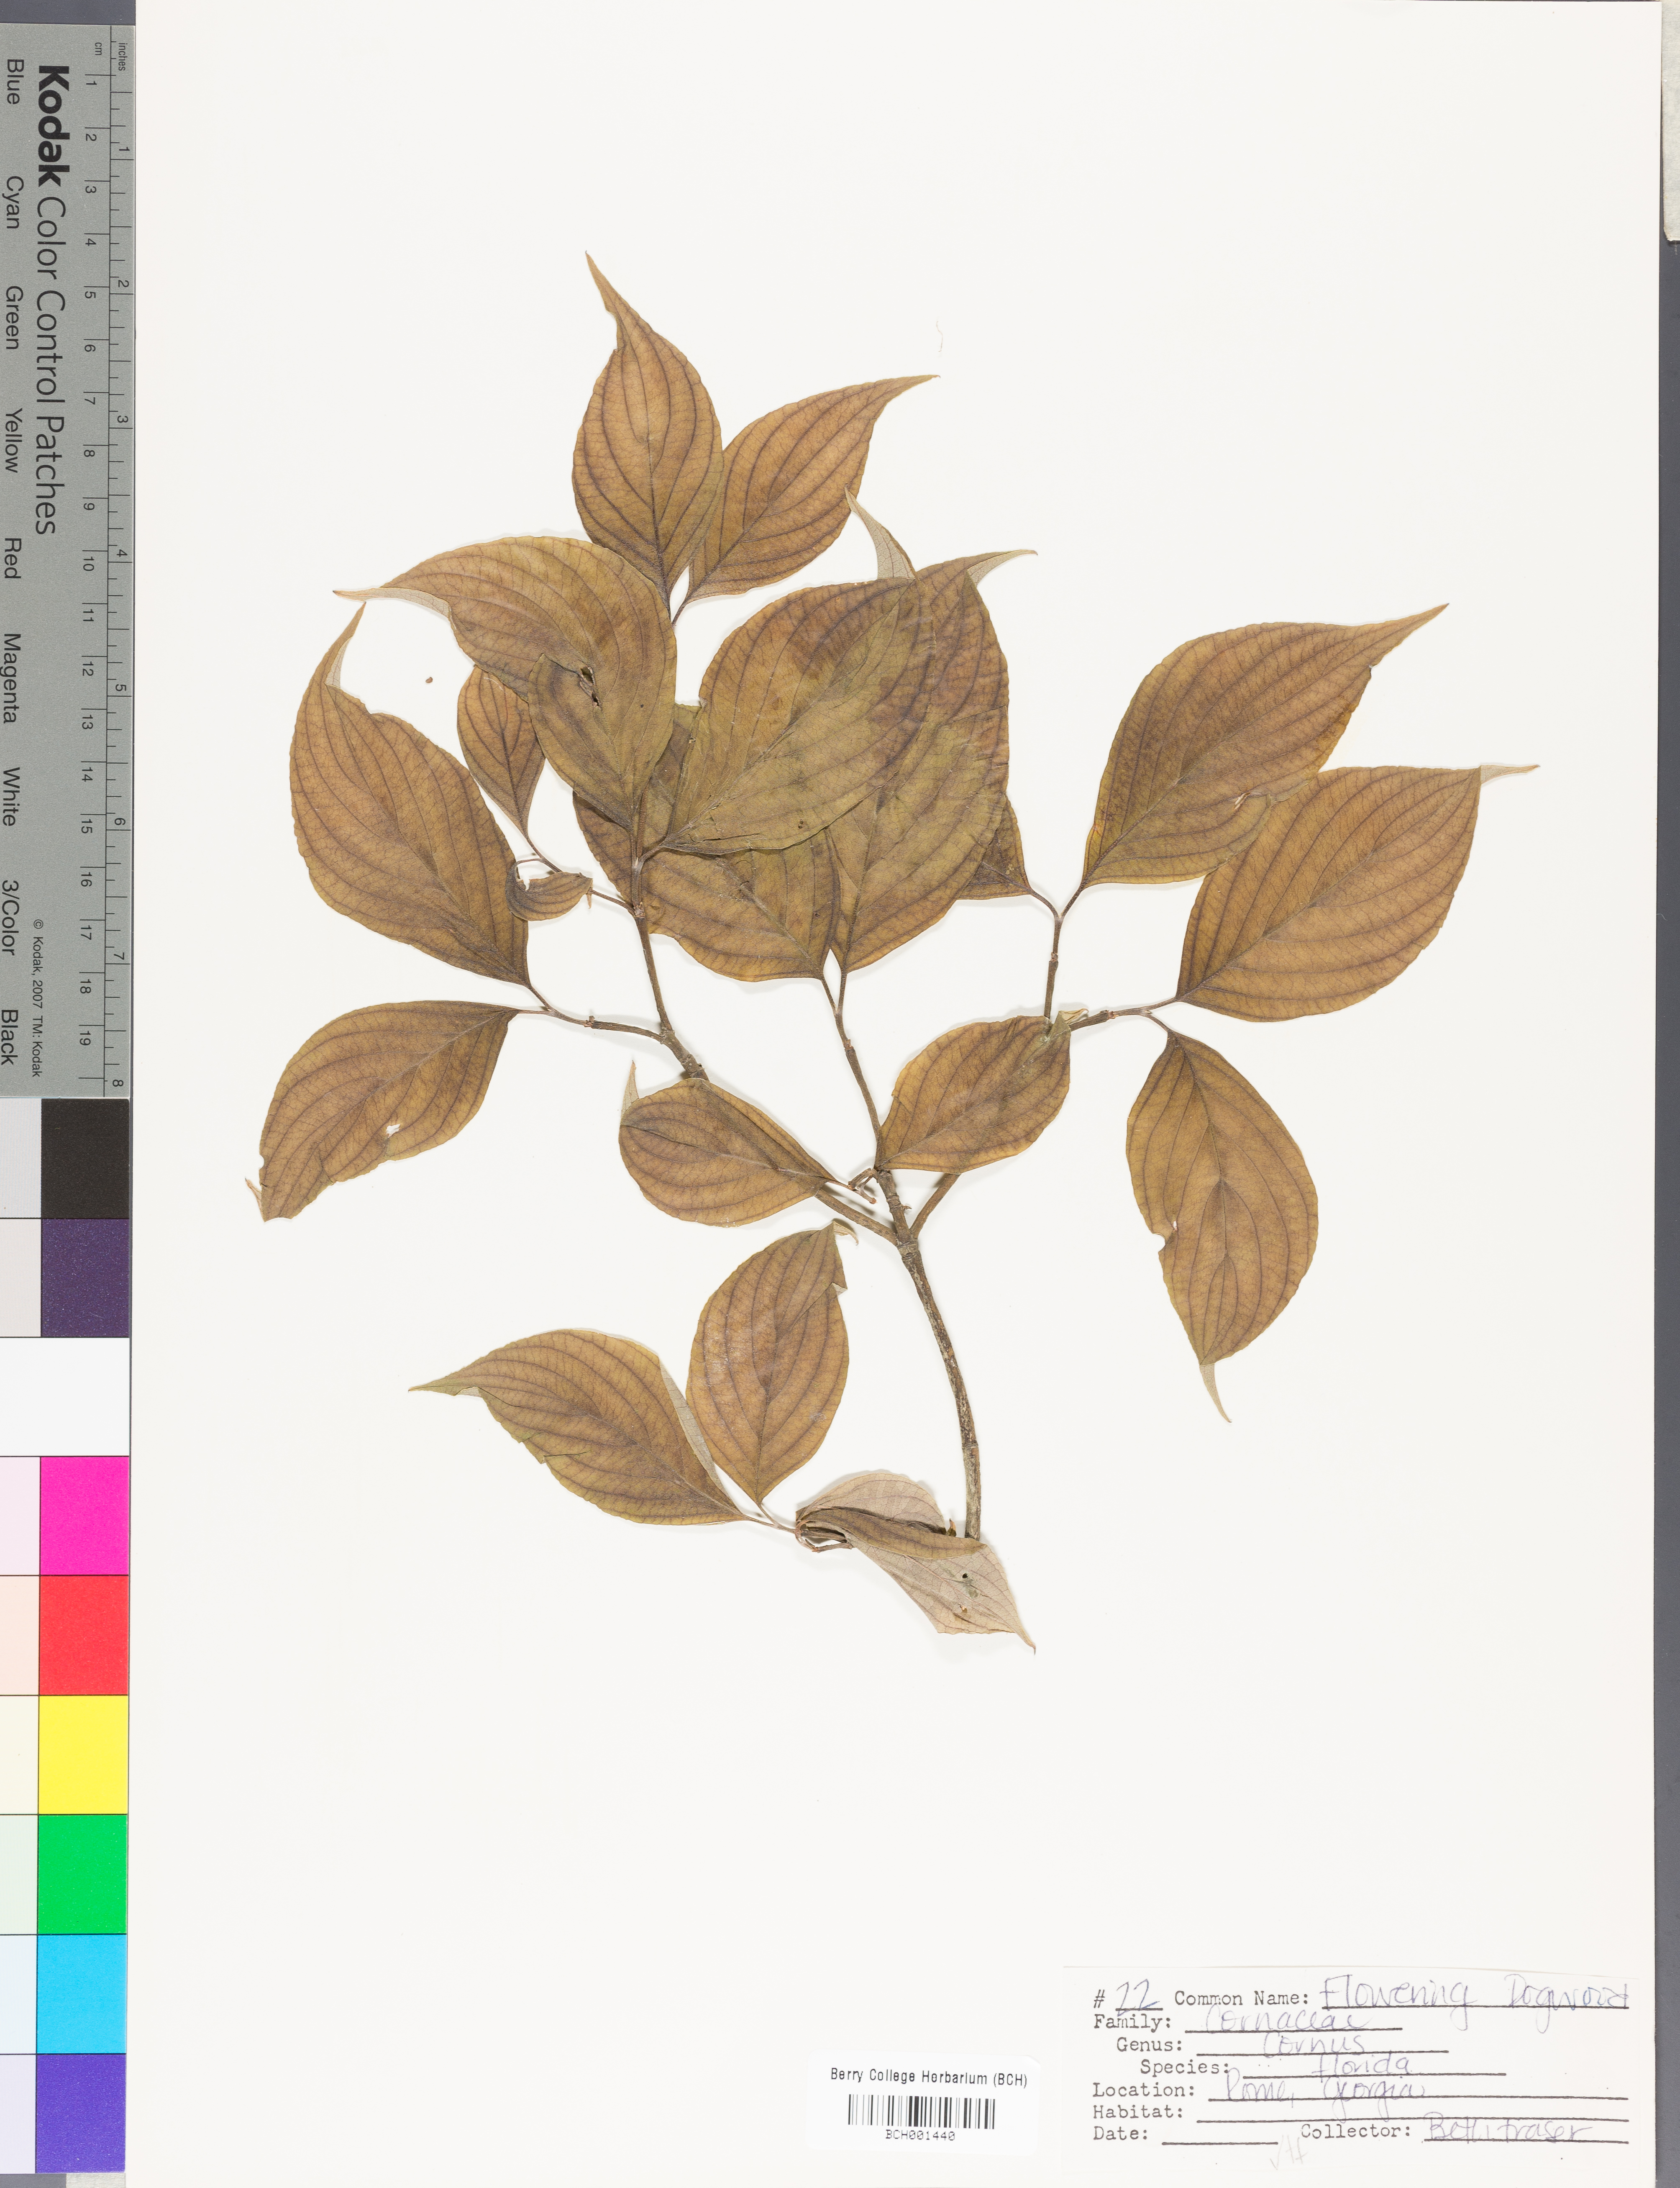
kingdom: Plantae
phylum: Tracheophyta
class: Magnoliopsida
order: Cornales
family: Cornaceae
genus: Cornus
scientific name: Cornus florida
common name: Flowering dogwood
